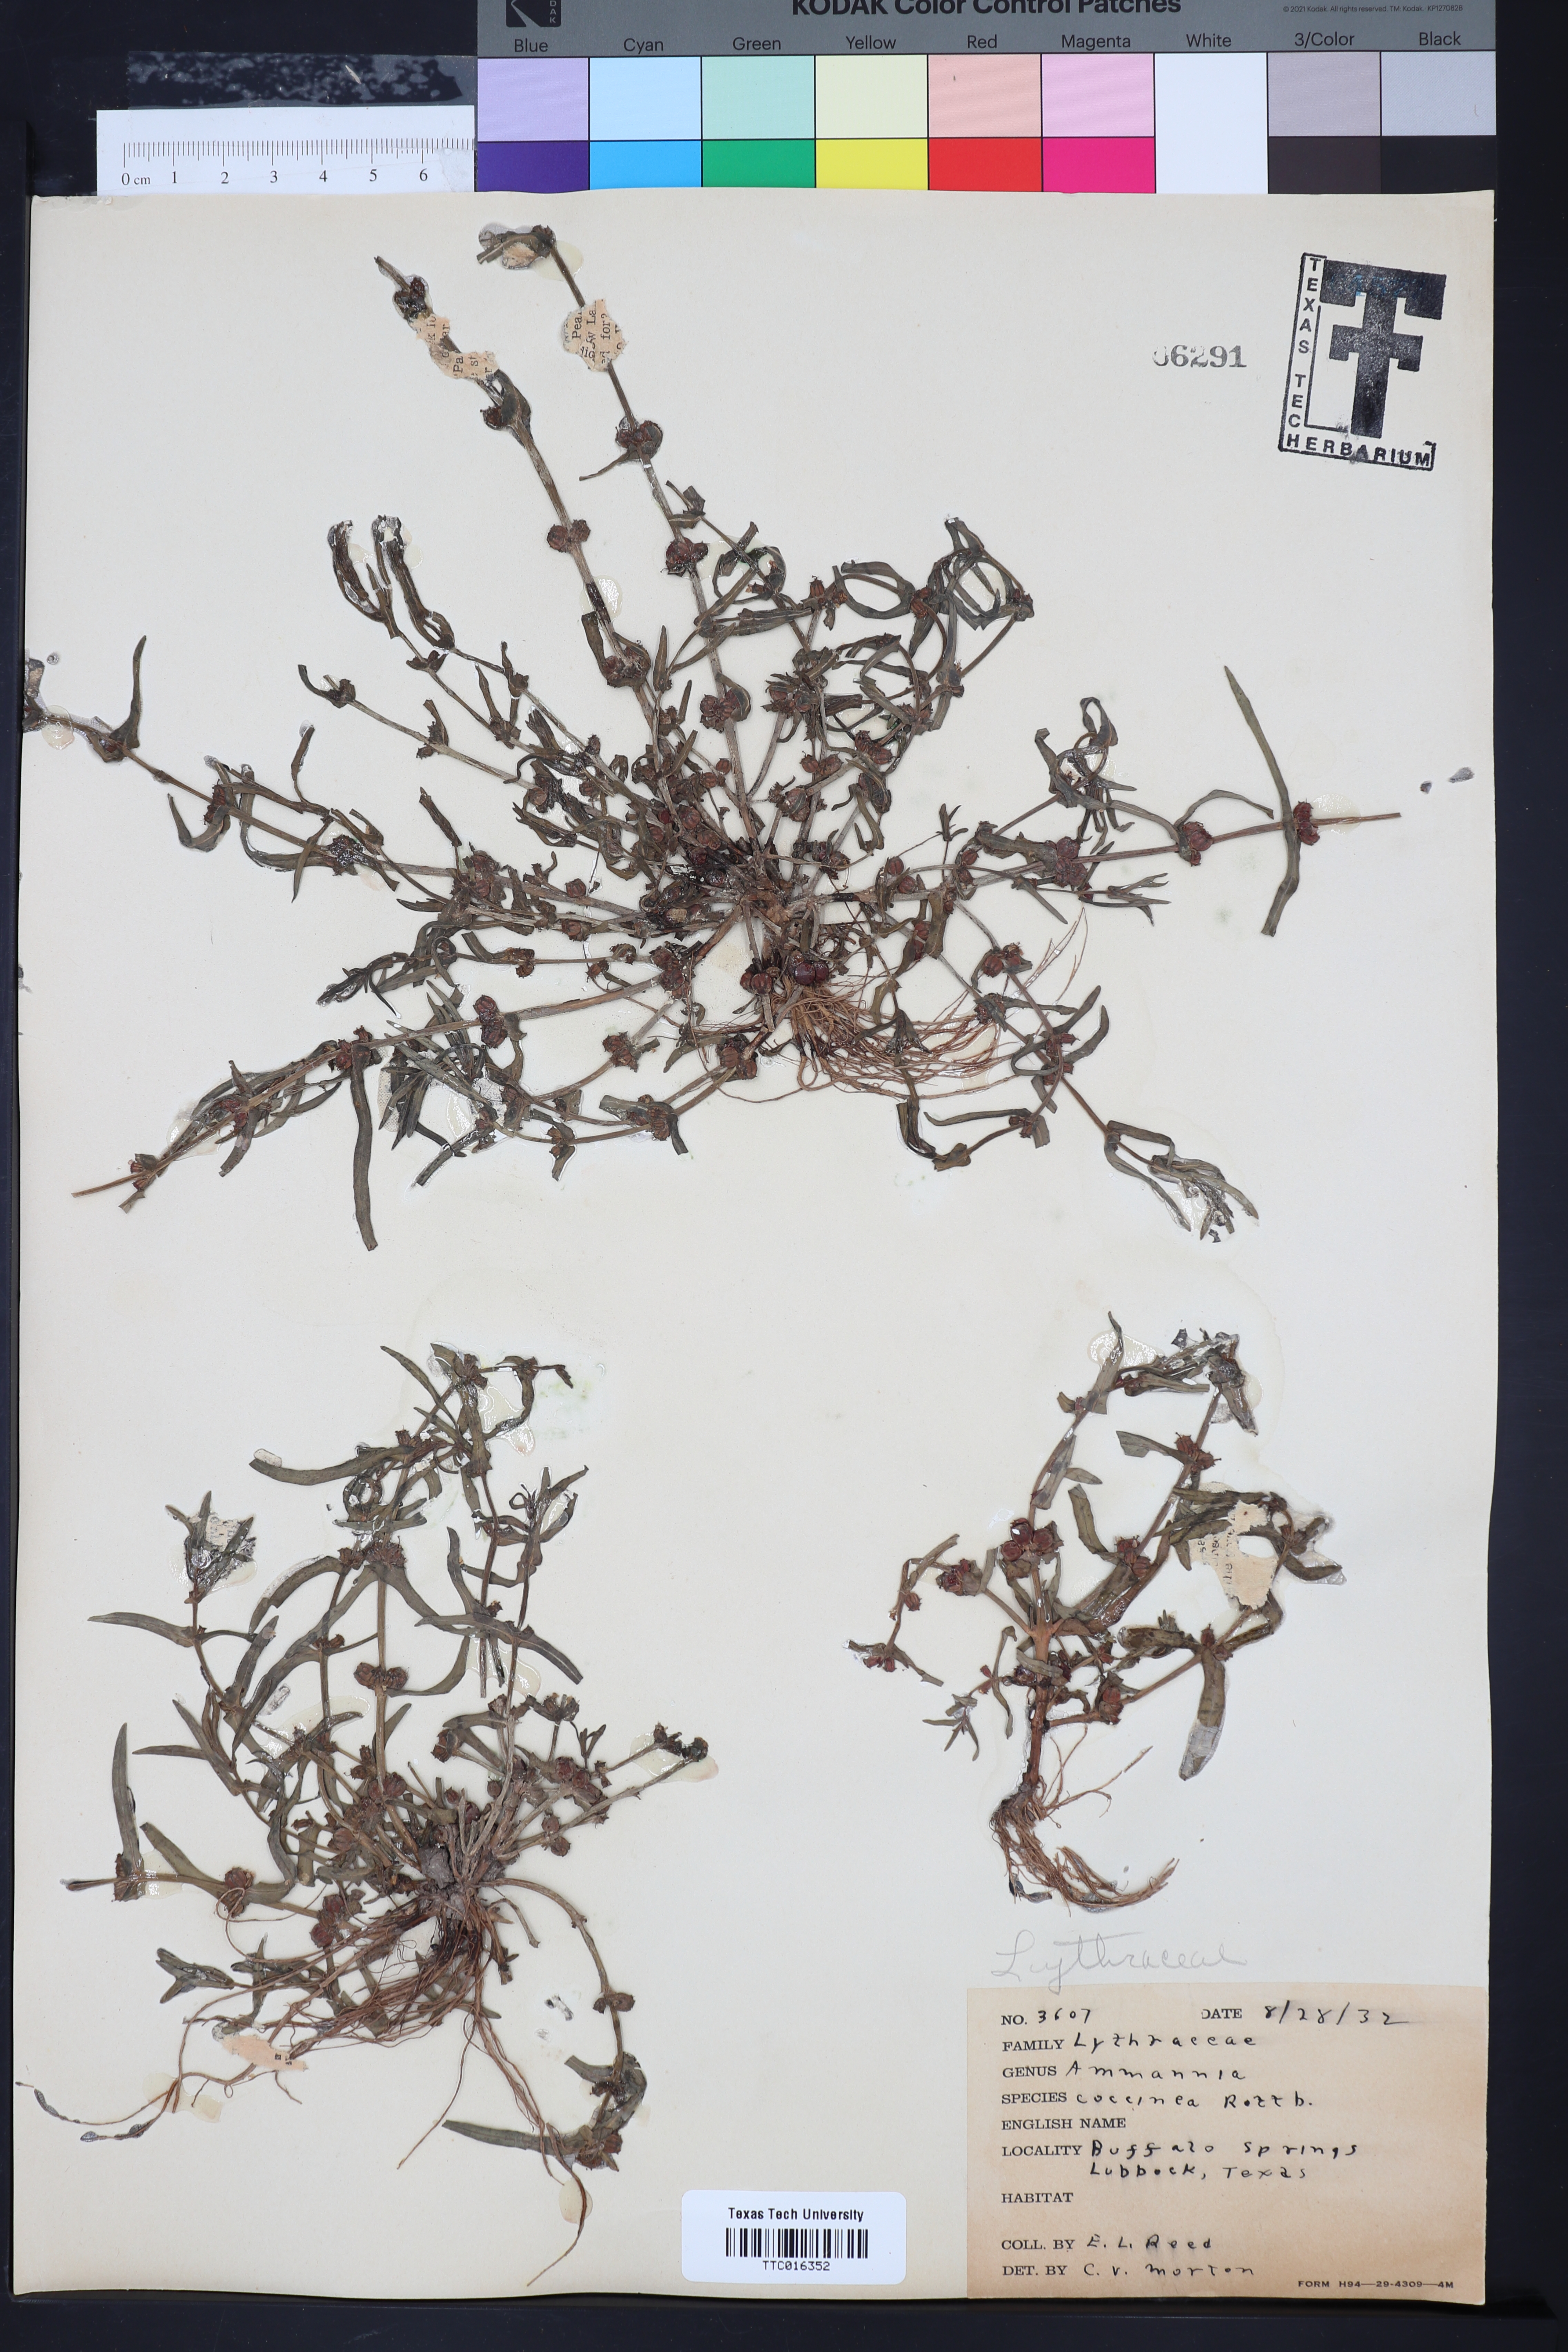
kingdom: Plantae
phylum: Tracheophyta
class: Magnoliopsida
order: Myrtales
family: Lythraceae
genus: Ammannia
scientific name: Ammannia coccinea
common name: Valley redstem
